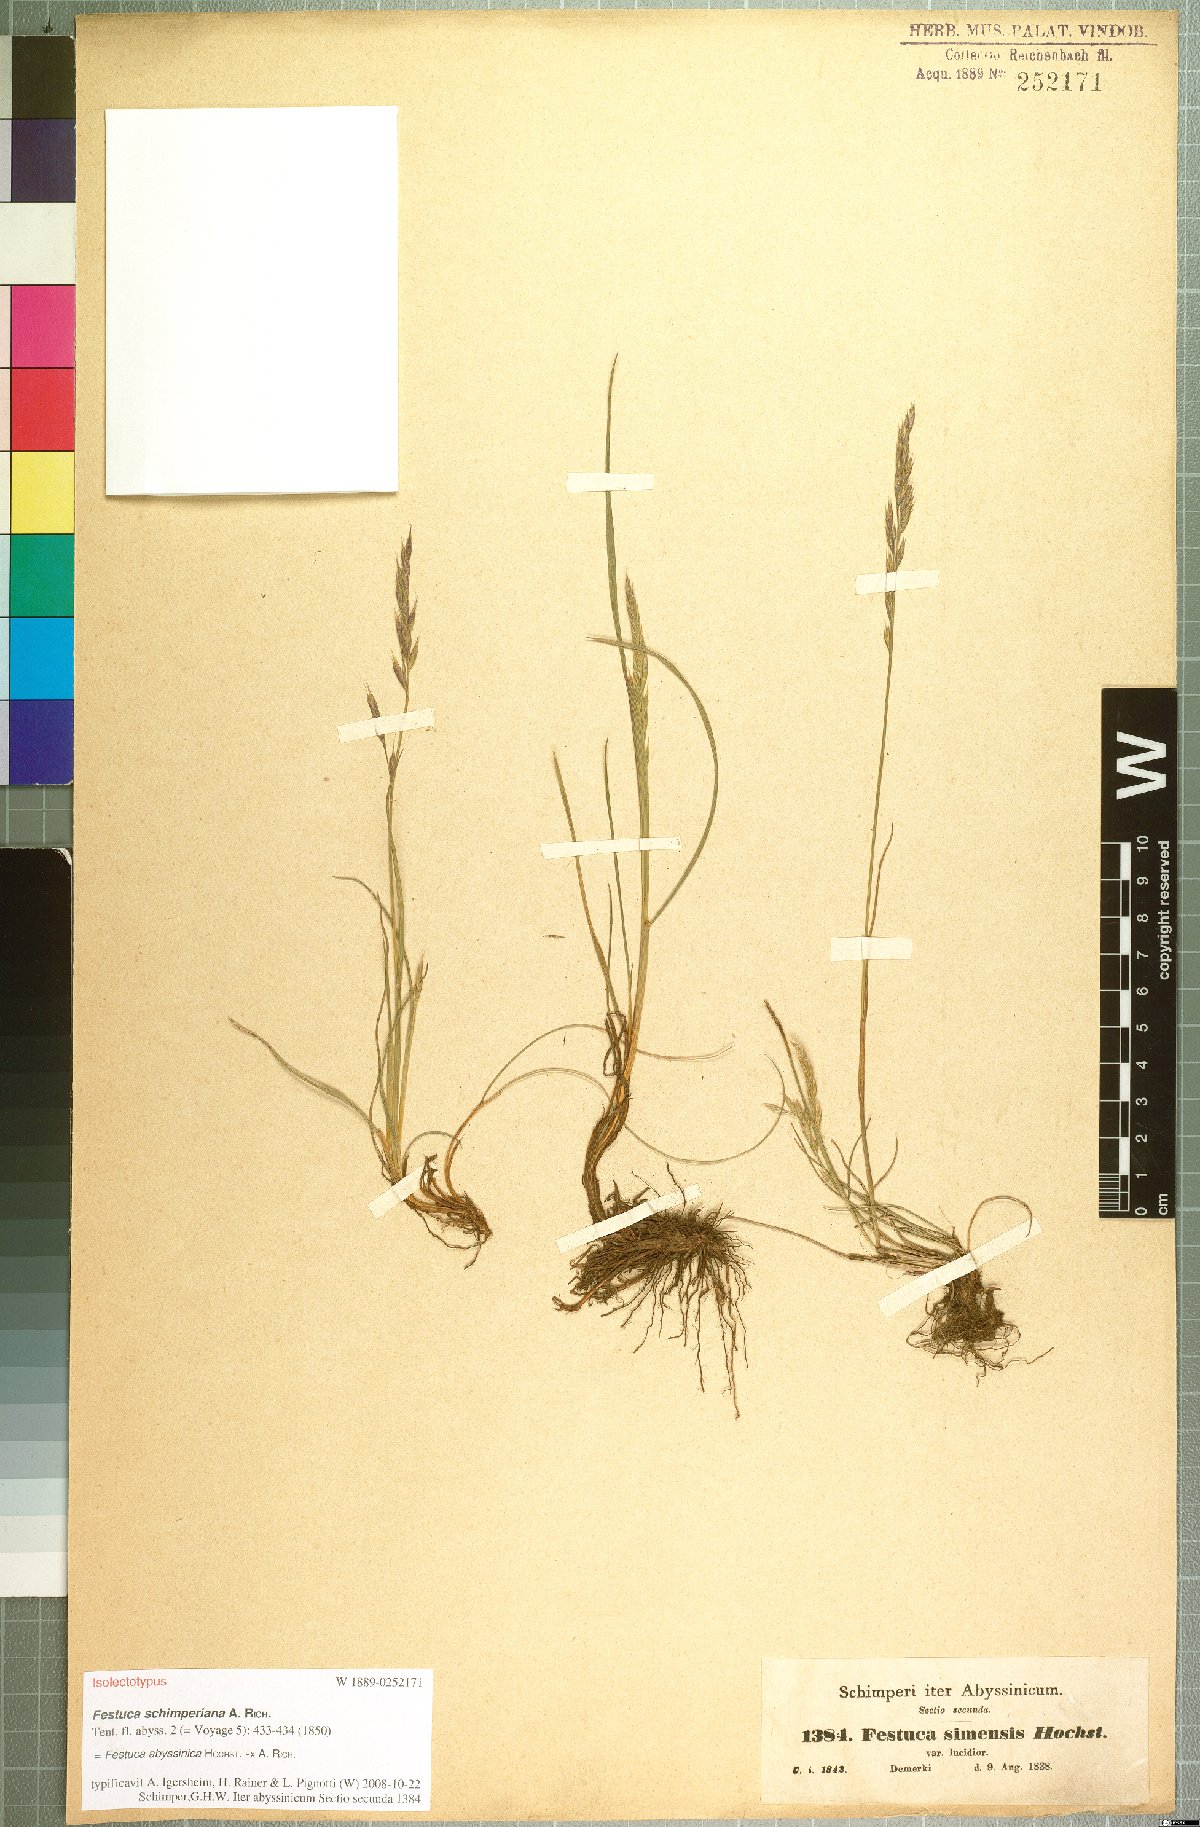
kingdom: Plantae
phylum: Tracheophyta
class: Liliopsida
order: Poales
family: Poaceae
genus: Festuca
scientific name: Festuca abyssinica
